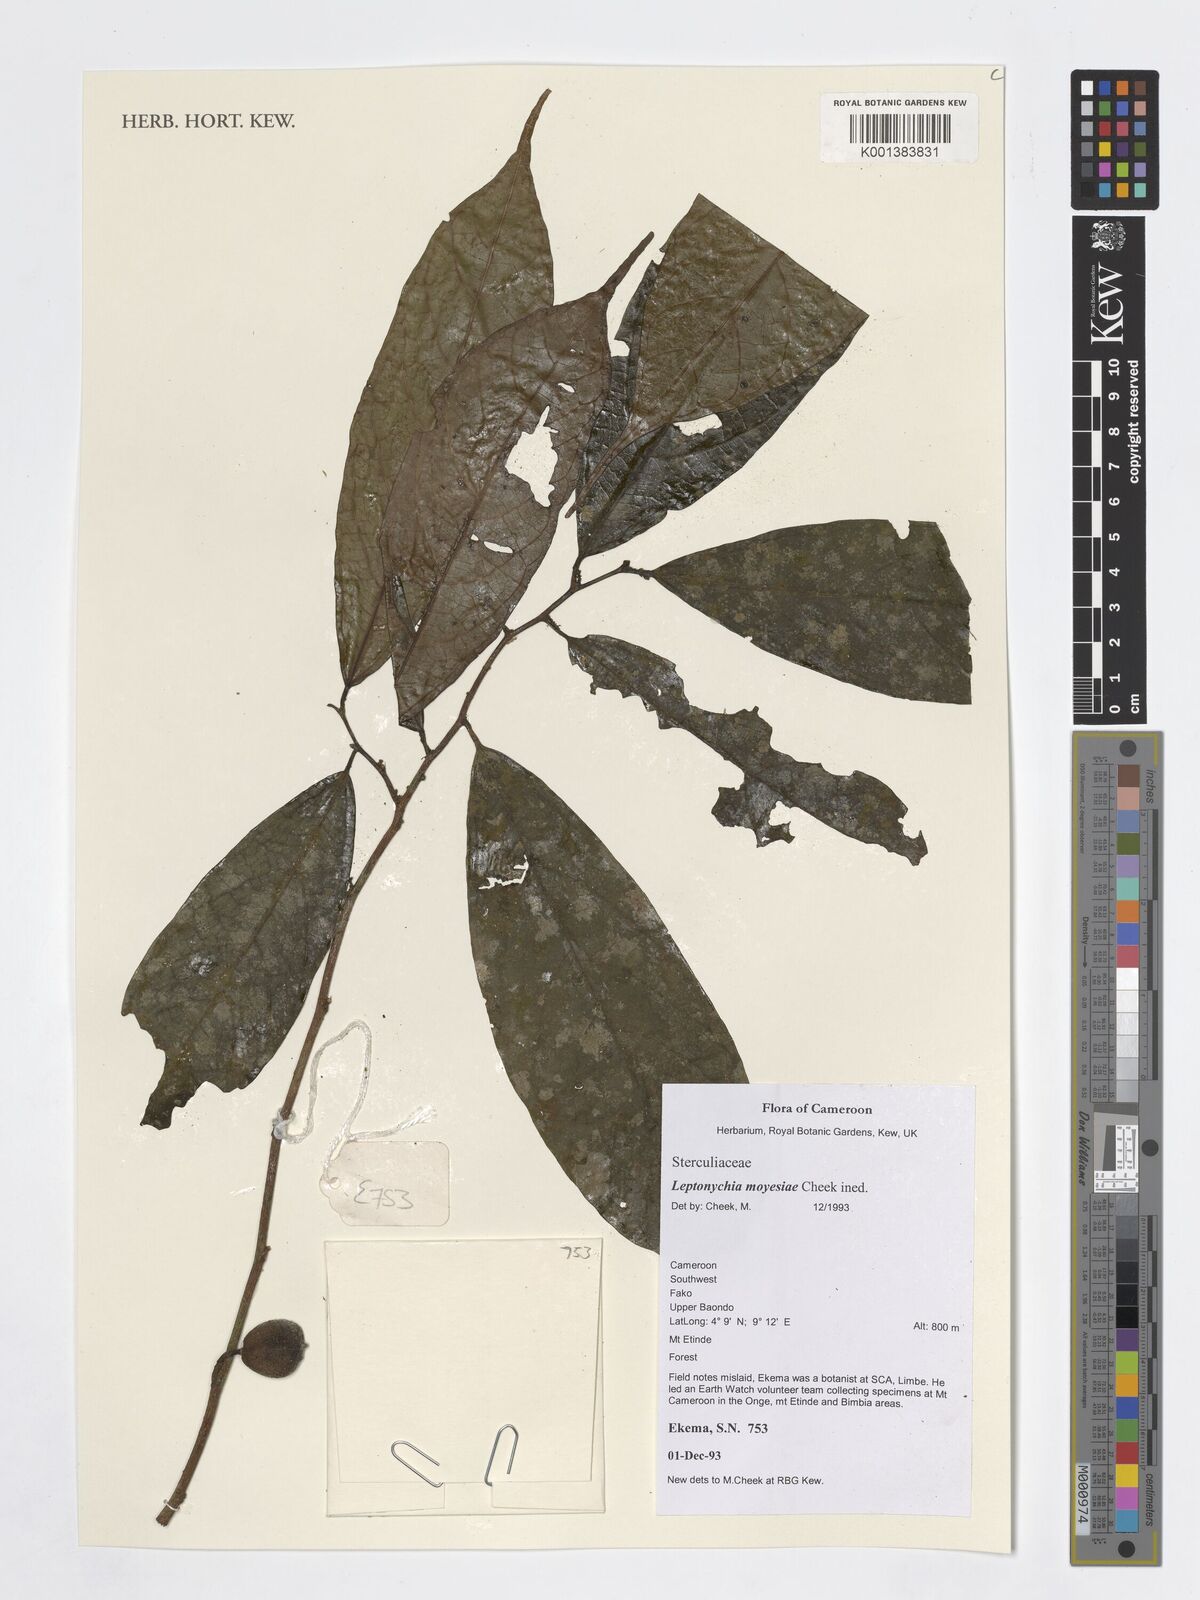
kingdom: Plantae
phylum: Tracheophyta
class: Magnoliopsida
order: Malvales
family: Malvaceae
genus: Leptonychia
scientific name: Leptonychia moyesiae
